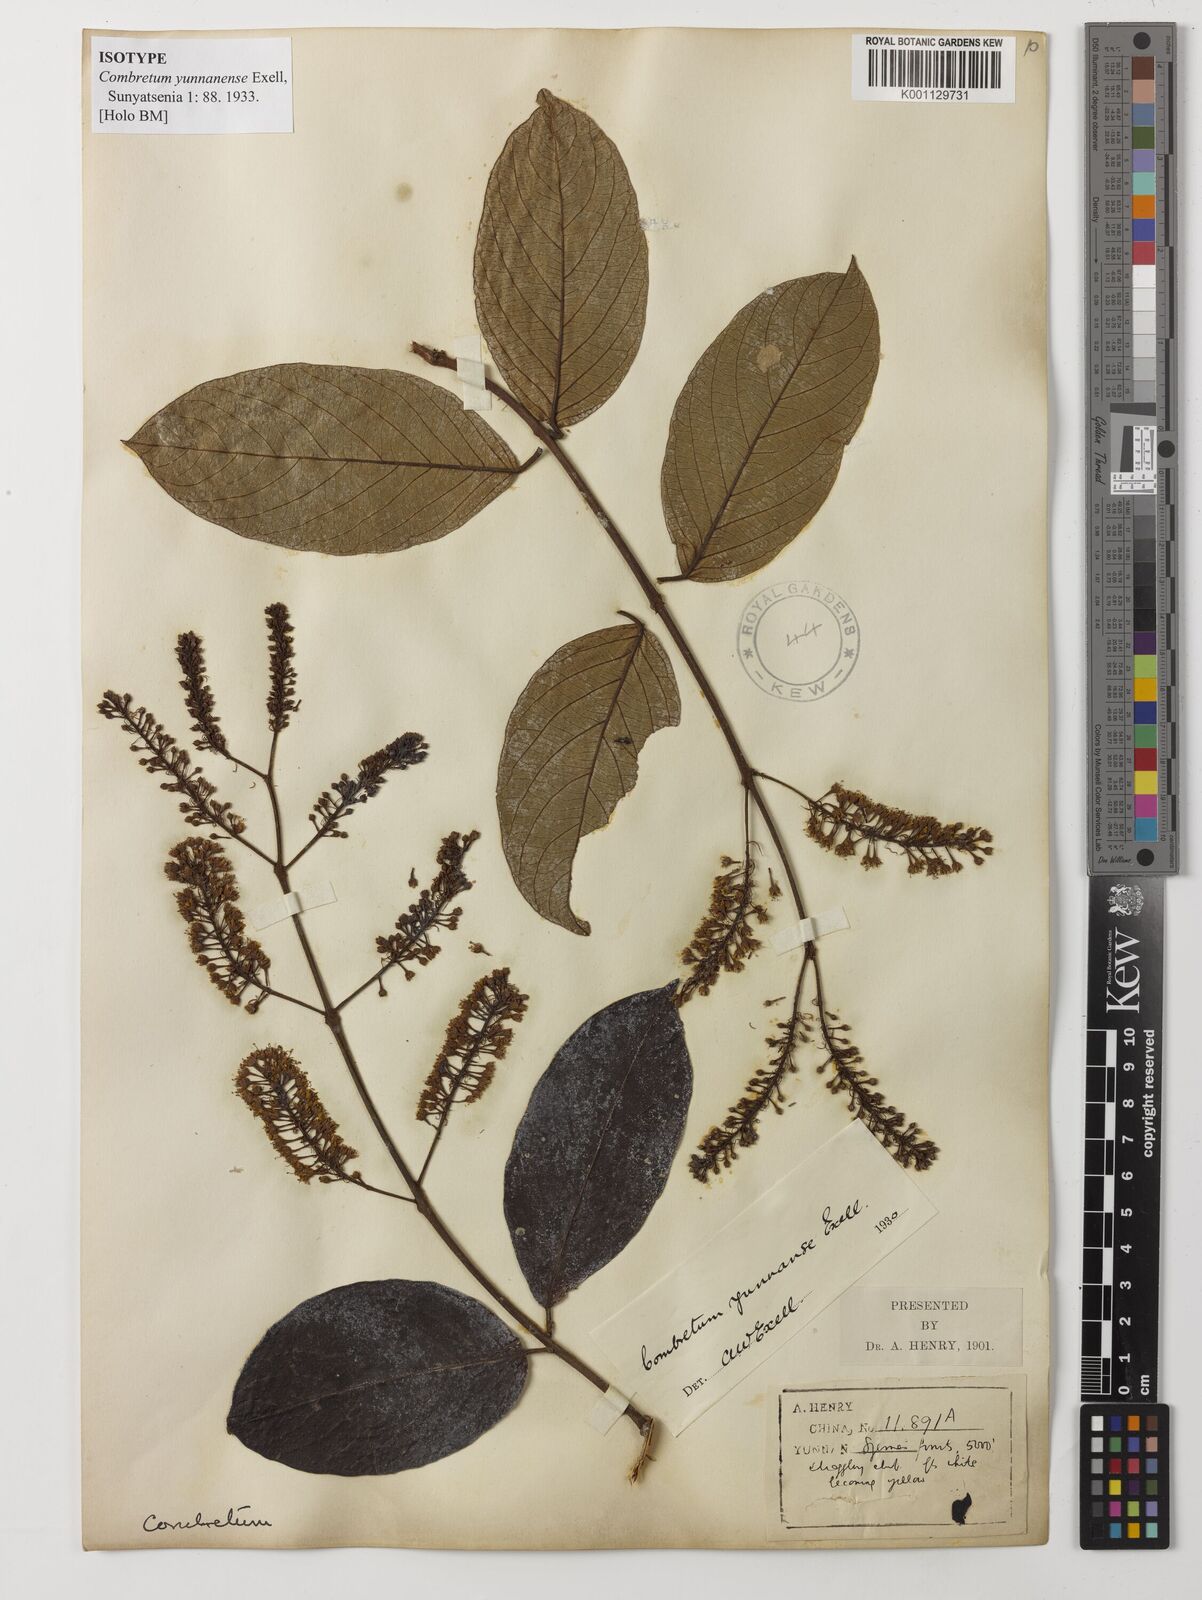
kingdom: Plantae
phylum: Tracheophyta
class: Magnoliopsida
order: Myrtales
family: Combretaceae
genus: Combretum
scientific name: Combretum griffithii
